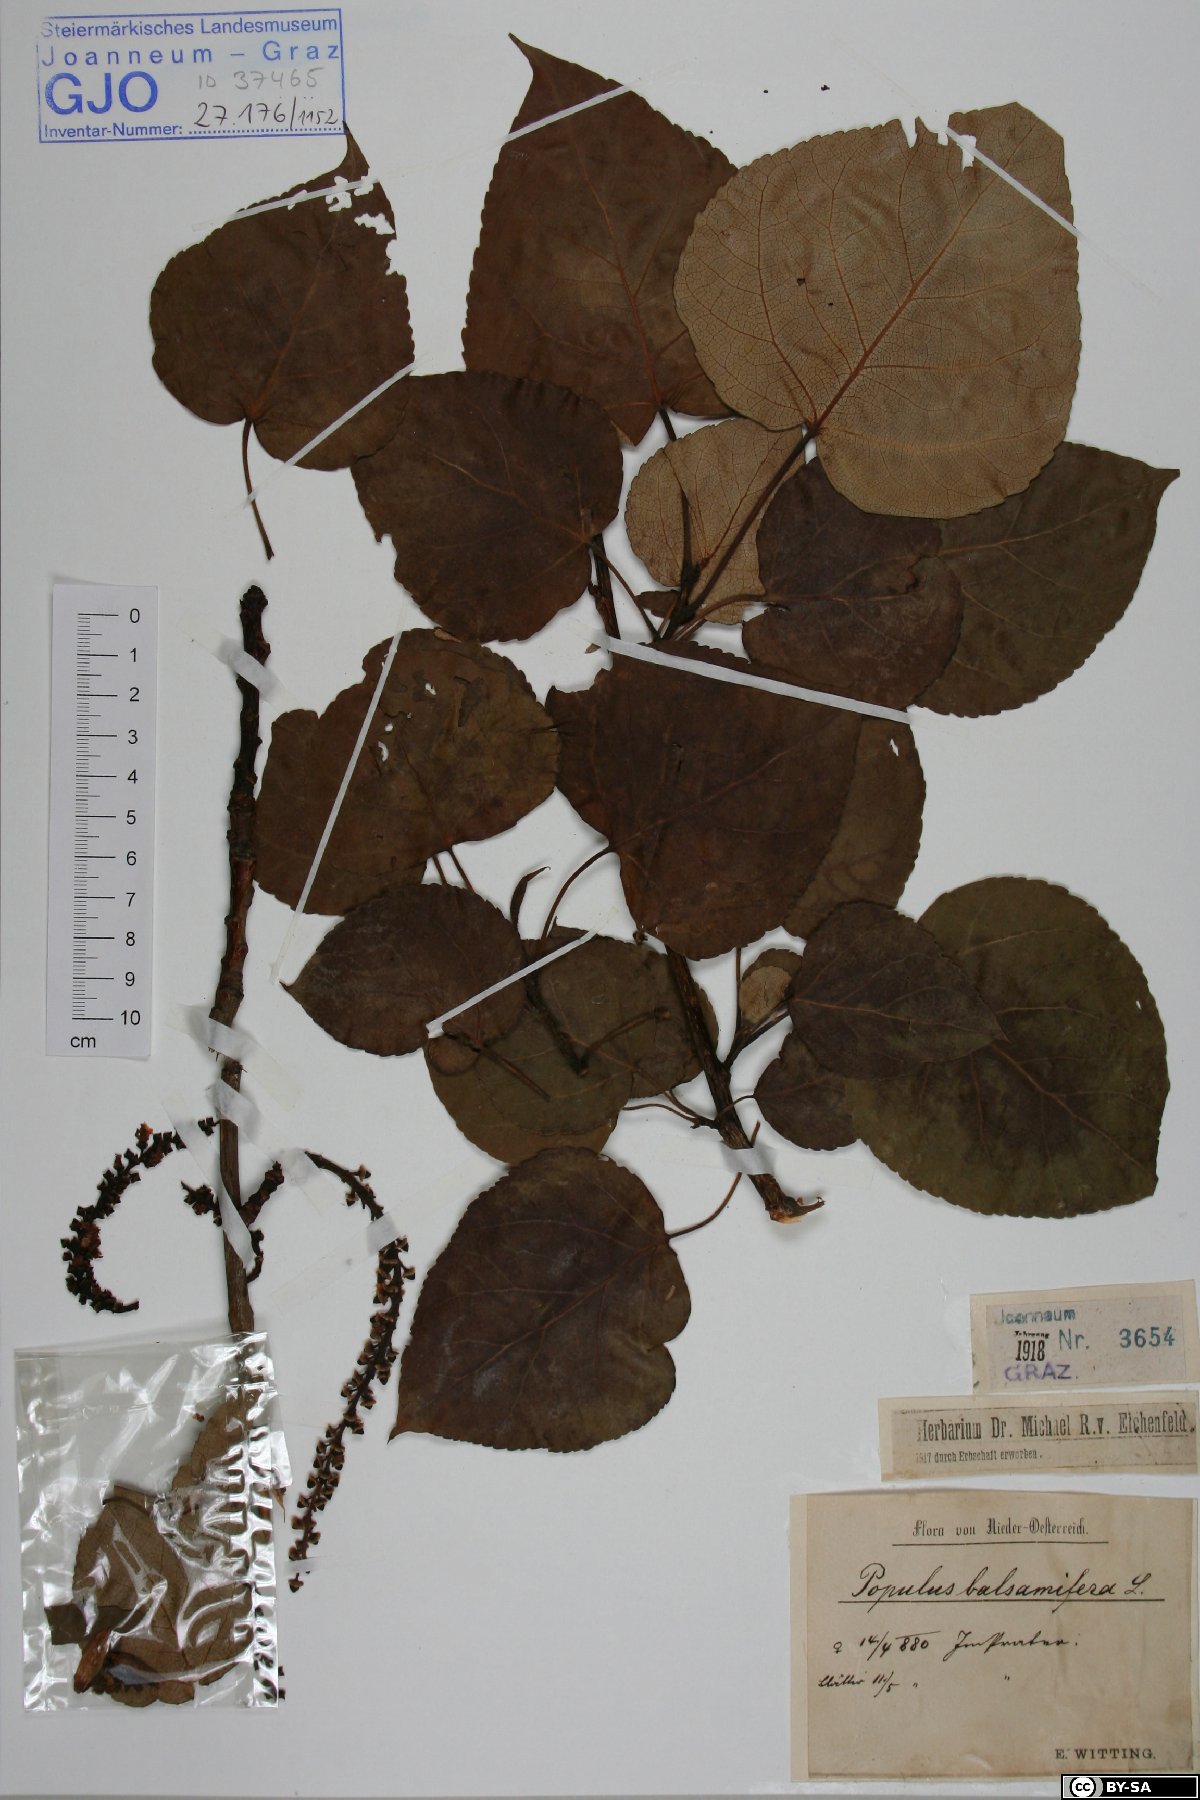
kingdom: Plantae
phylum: Tracheophyta
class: Magnoliopsida
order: Malpighiales
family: Salicaceae
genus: Populus
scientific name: Populus balsamifera
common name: Balsam poplar
